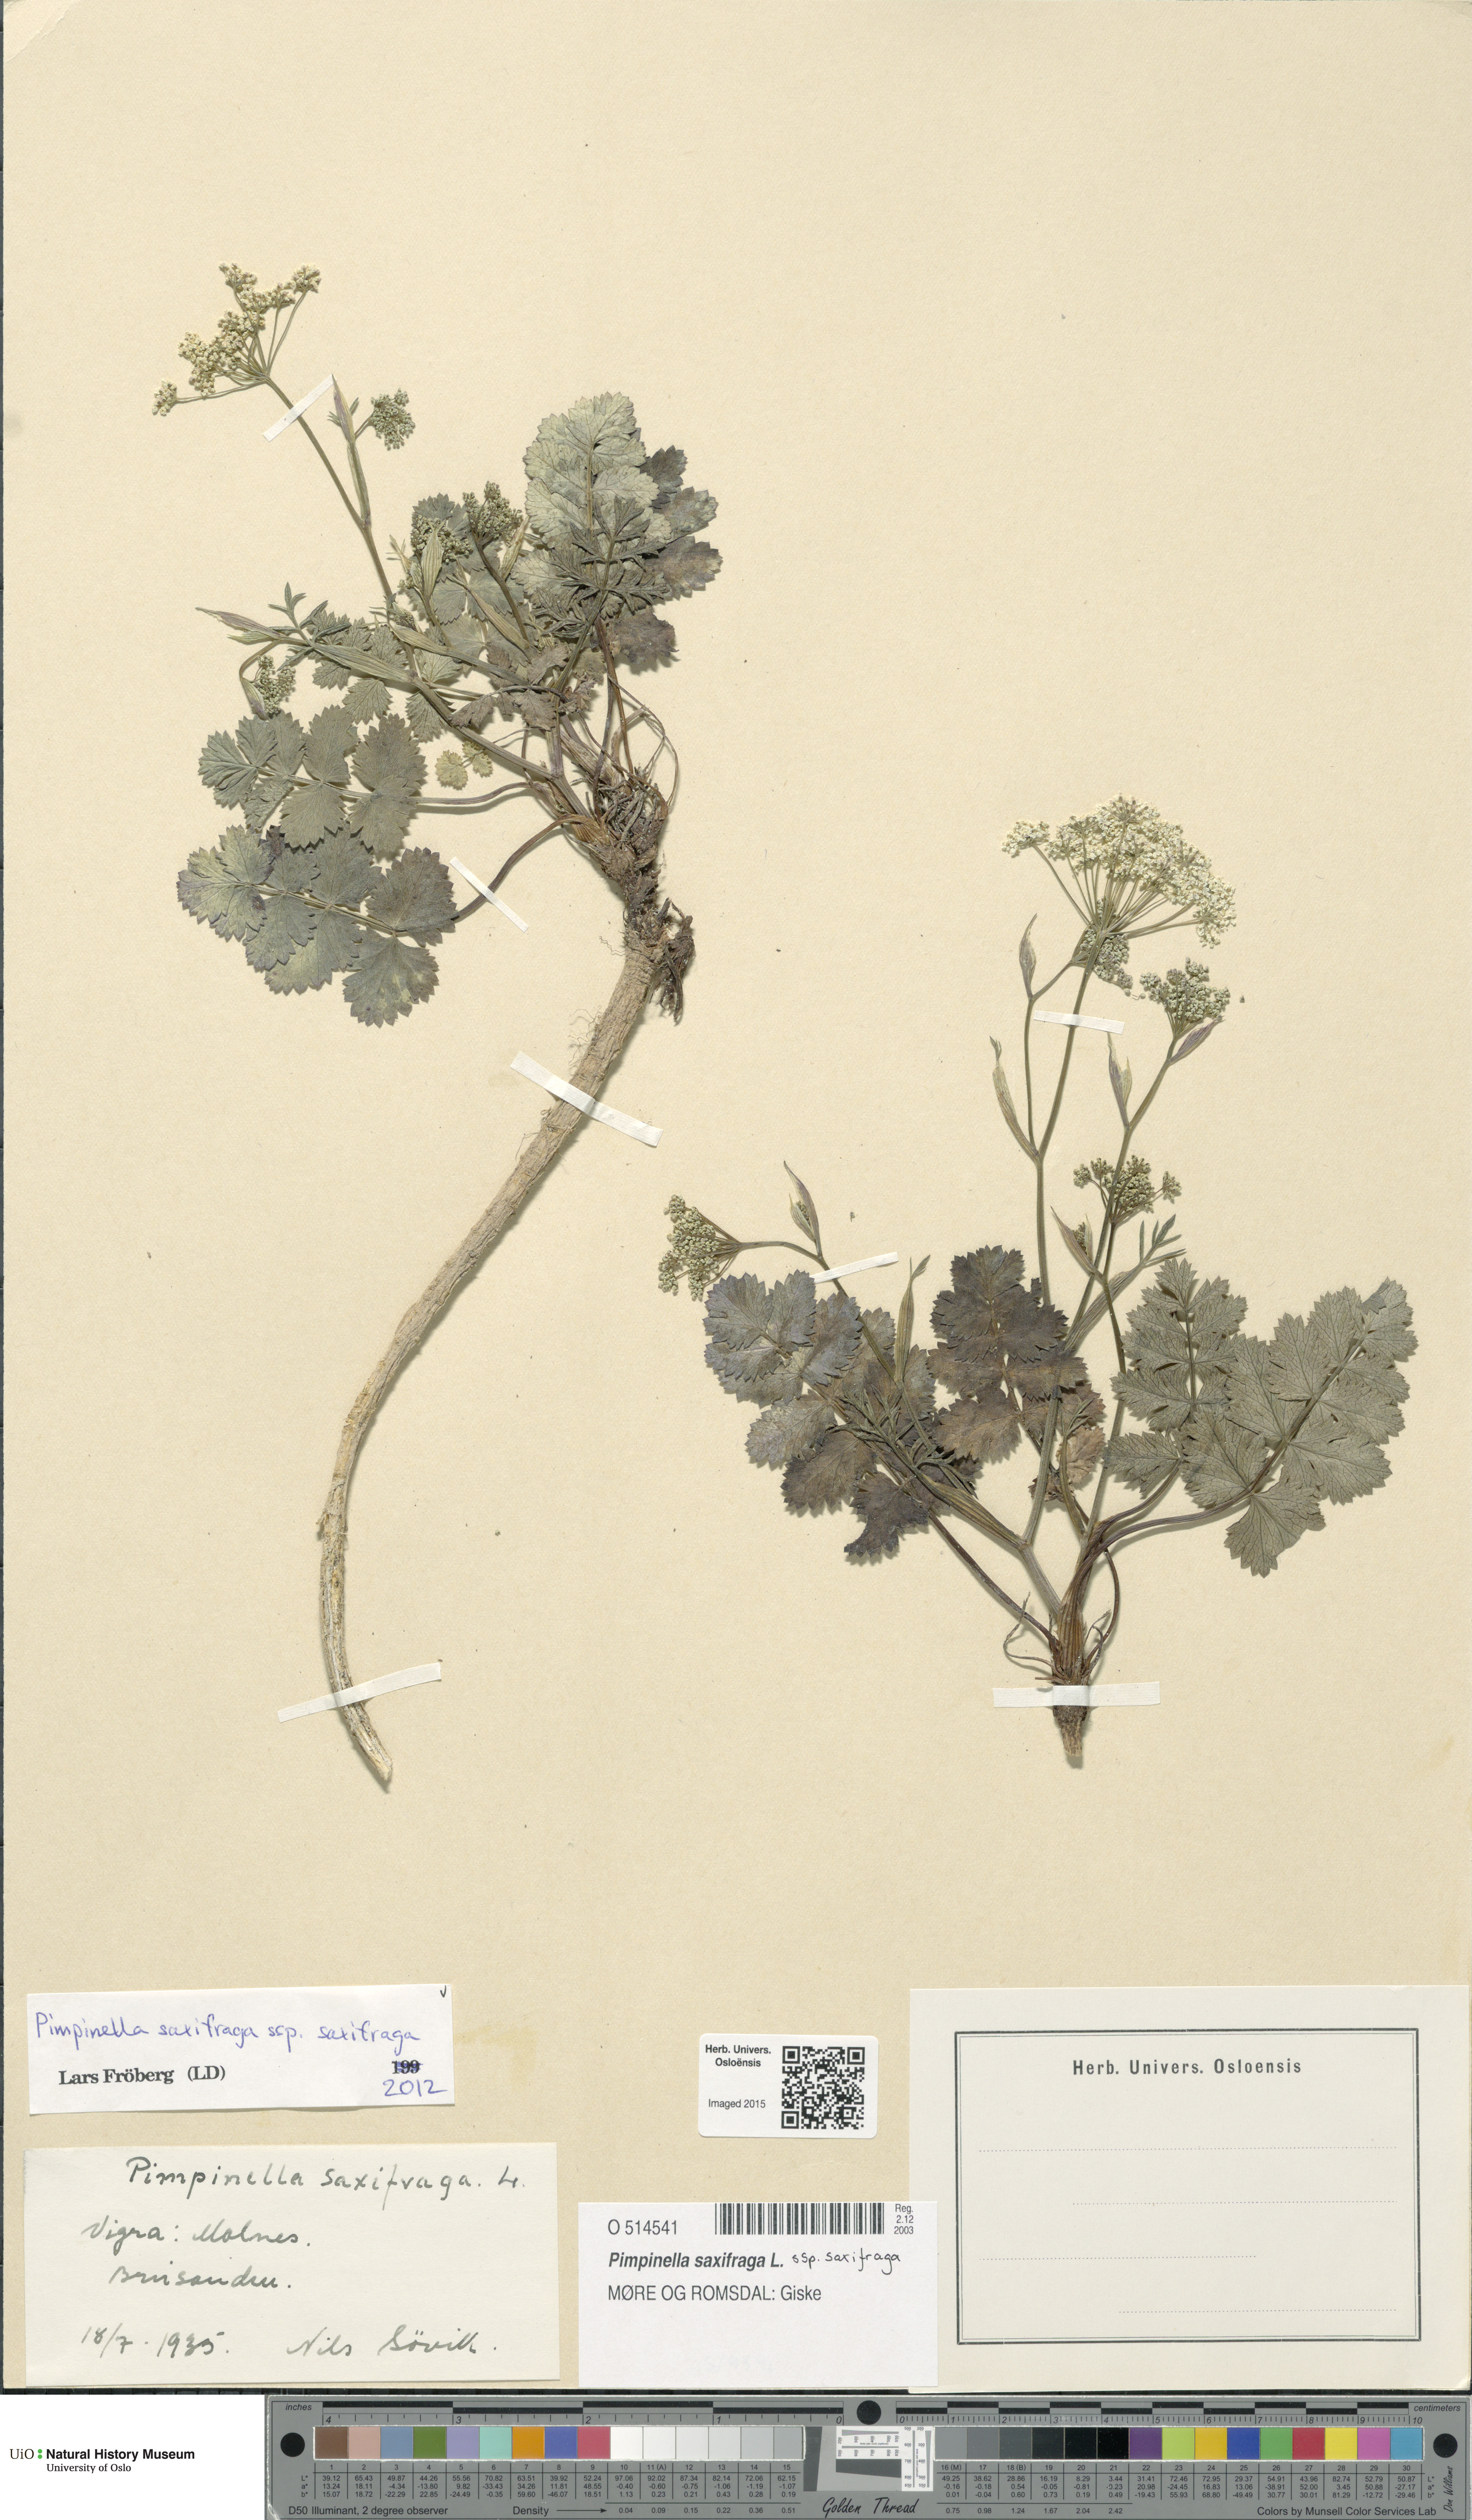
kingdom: Plantae
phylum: Tracheophyta
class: Magnoliopsida
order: Apiales
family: Apiaceae
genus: Pimpinella
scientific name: Pimpinella saxifraga
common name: Burnet-saxifrage
